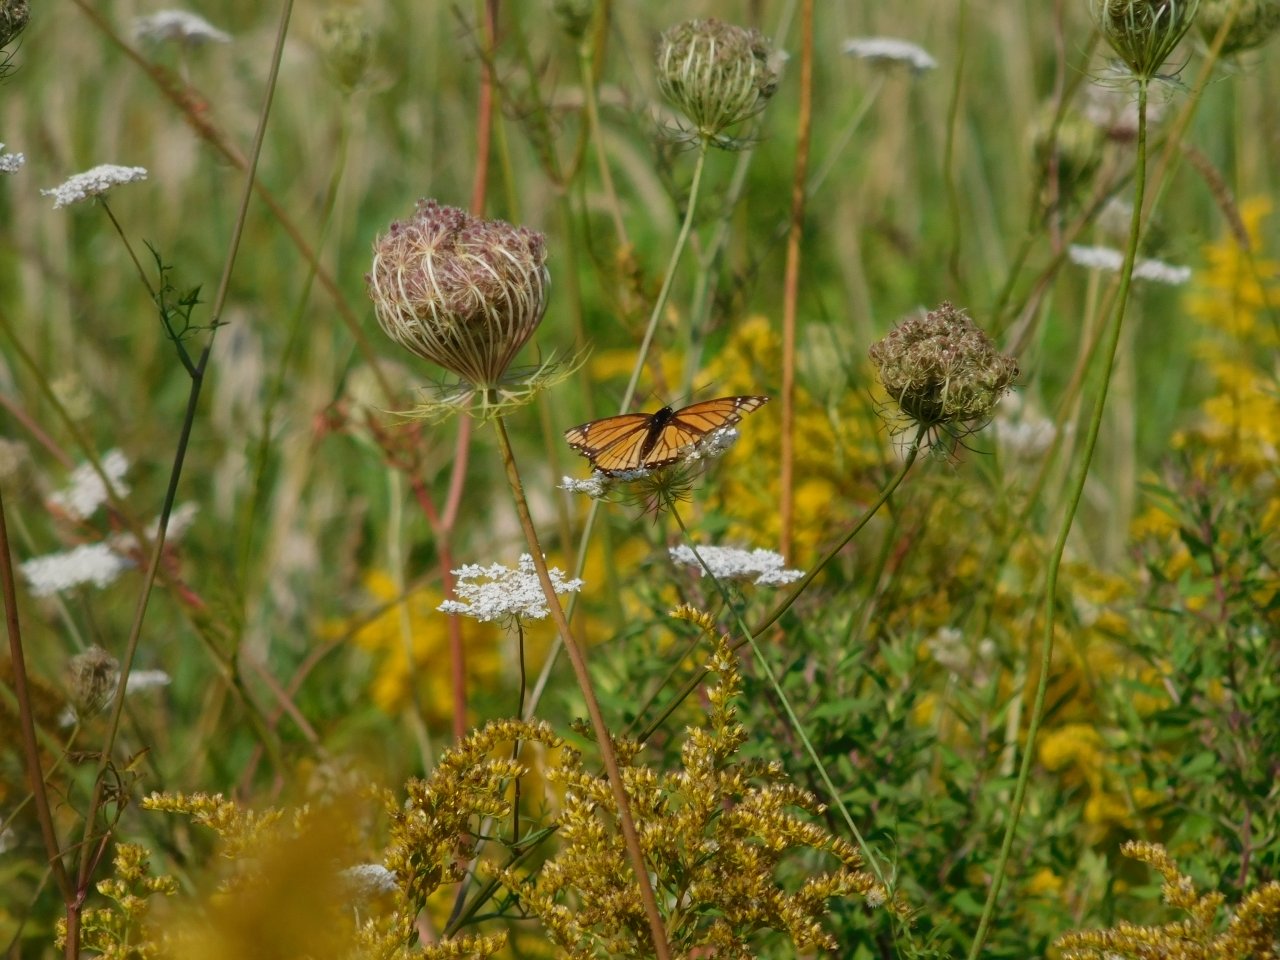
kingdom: Animalia
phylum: Arthropoda
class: Insecta
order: Lepidoptera
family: Nymphalidae
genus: Limenitis
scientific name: Limenitis archippus
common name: Viceroy
